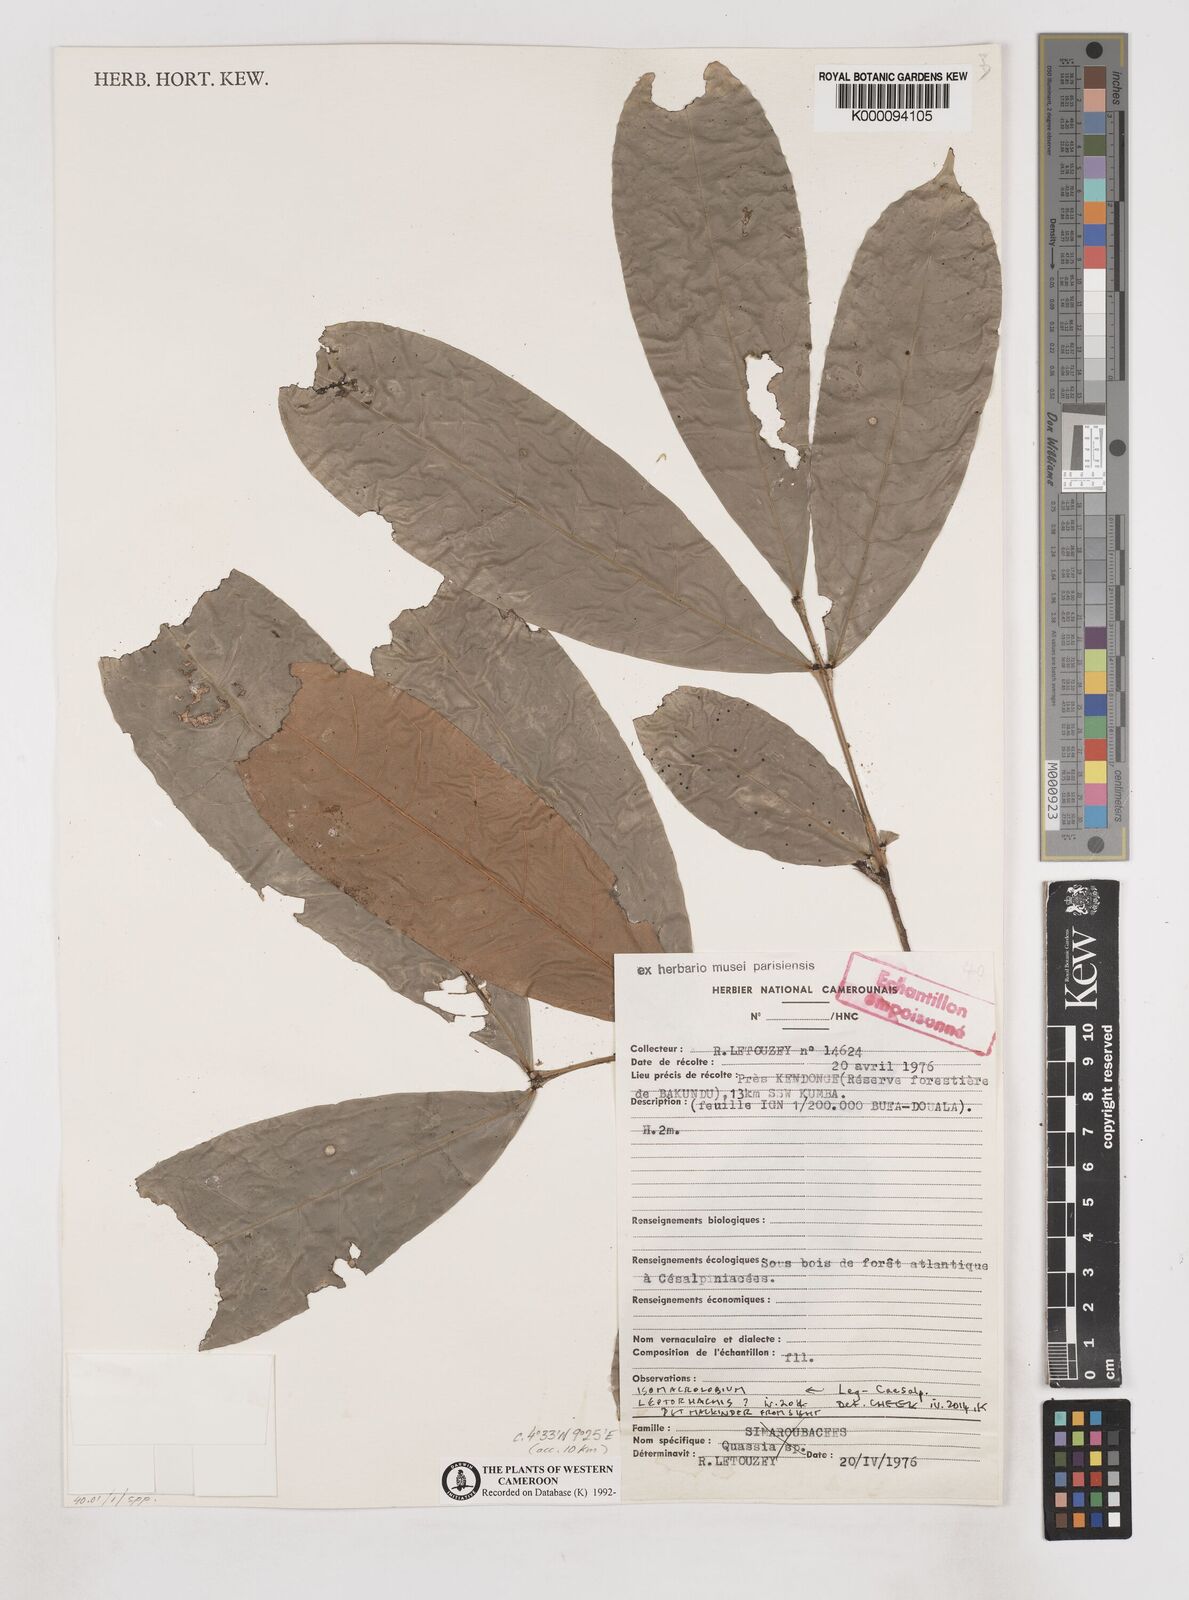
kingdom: Plantae
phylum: Tracheophyta
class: Magnoliopsida
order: Sapindales
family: Simaroubaceae
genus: Quassia
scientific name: Quassia
